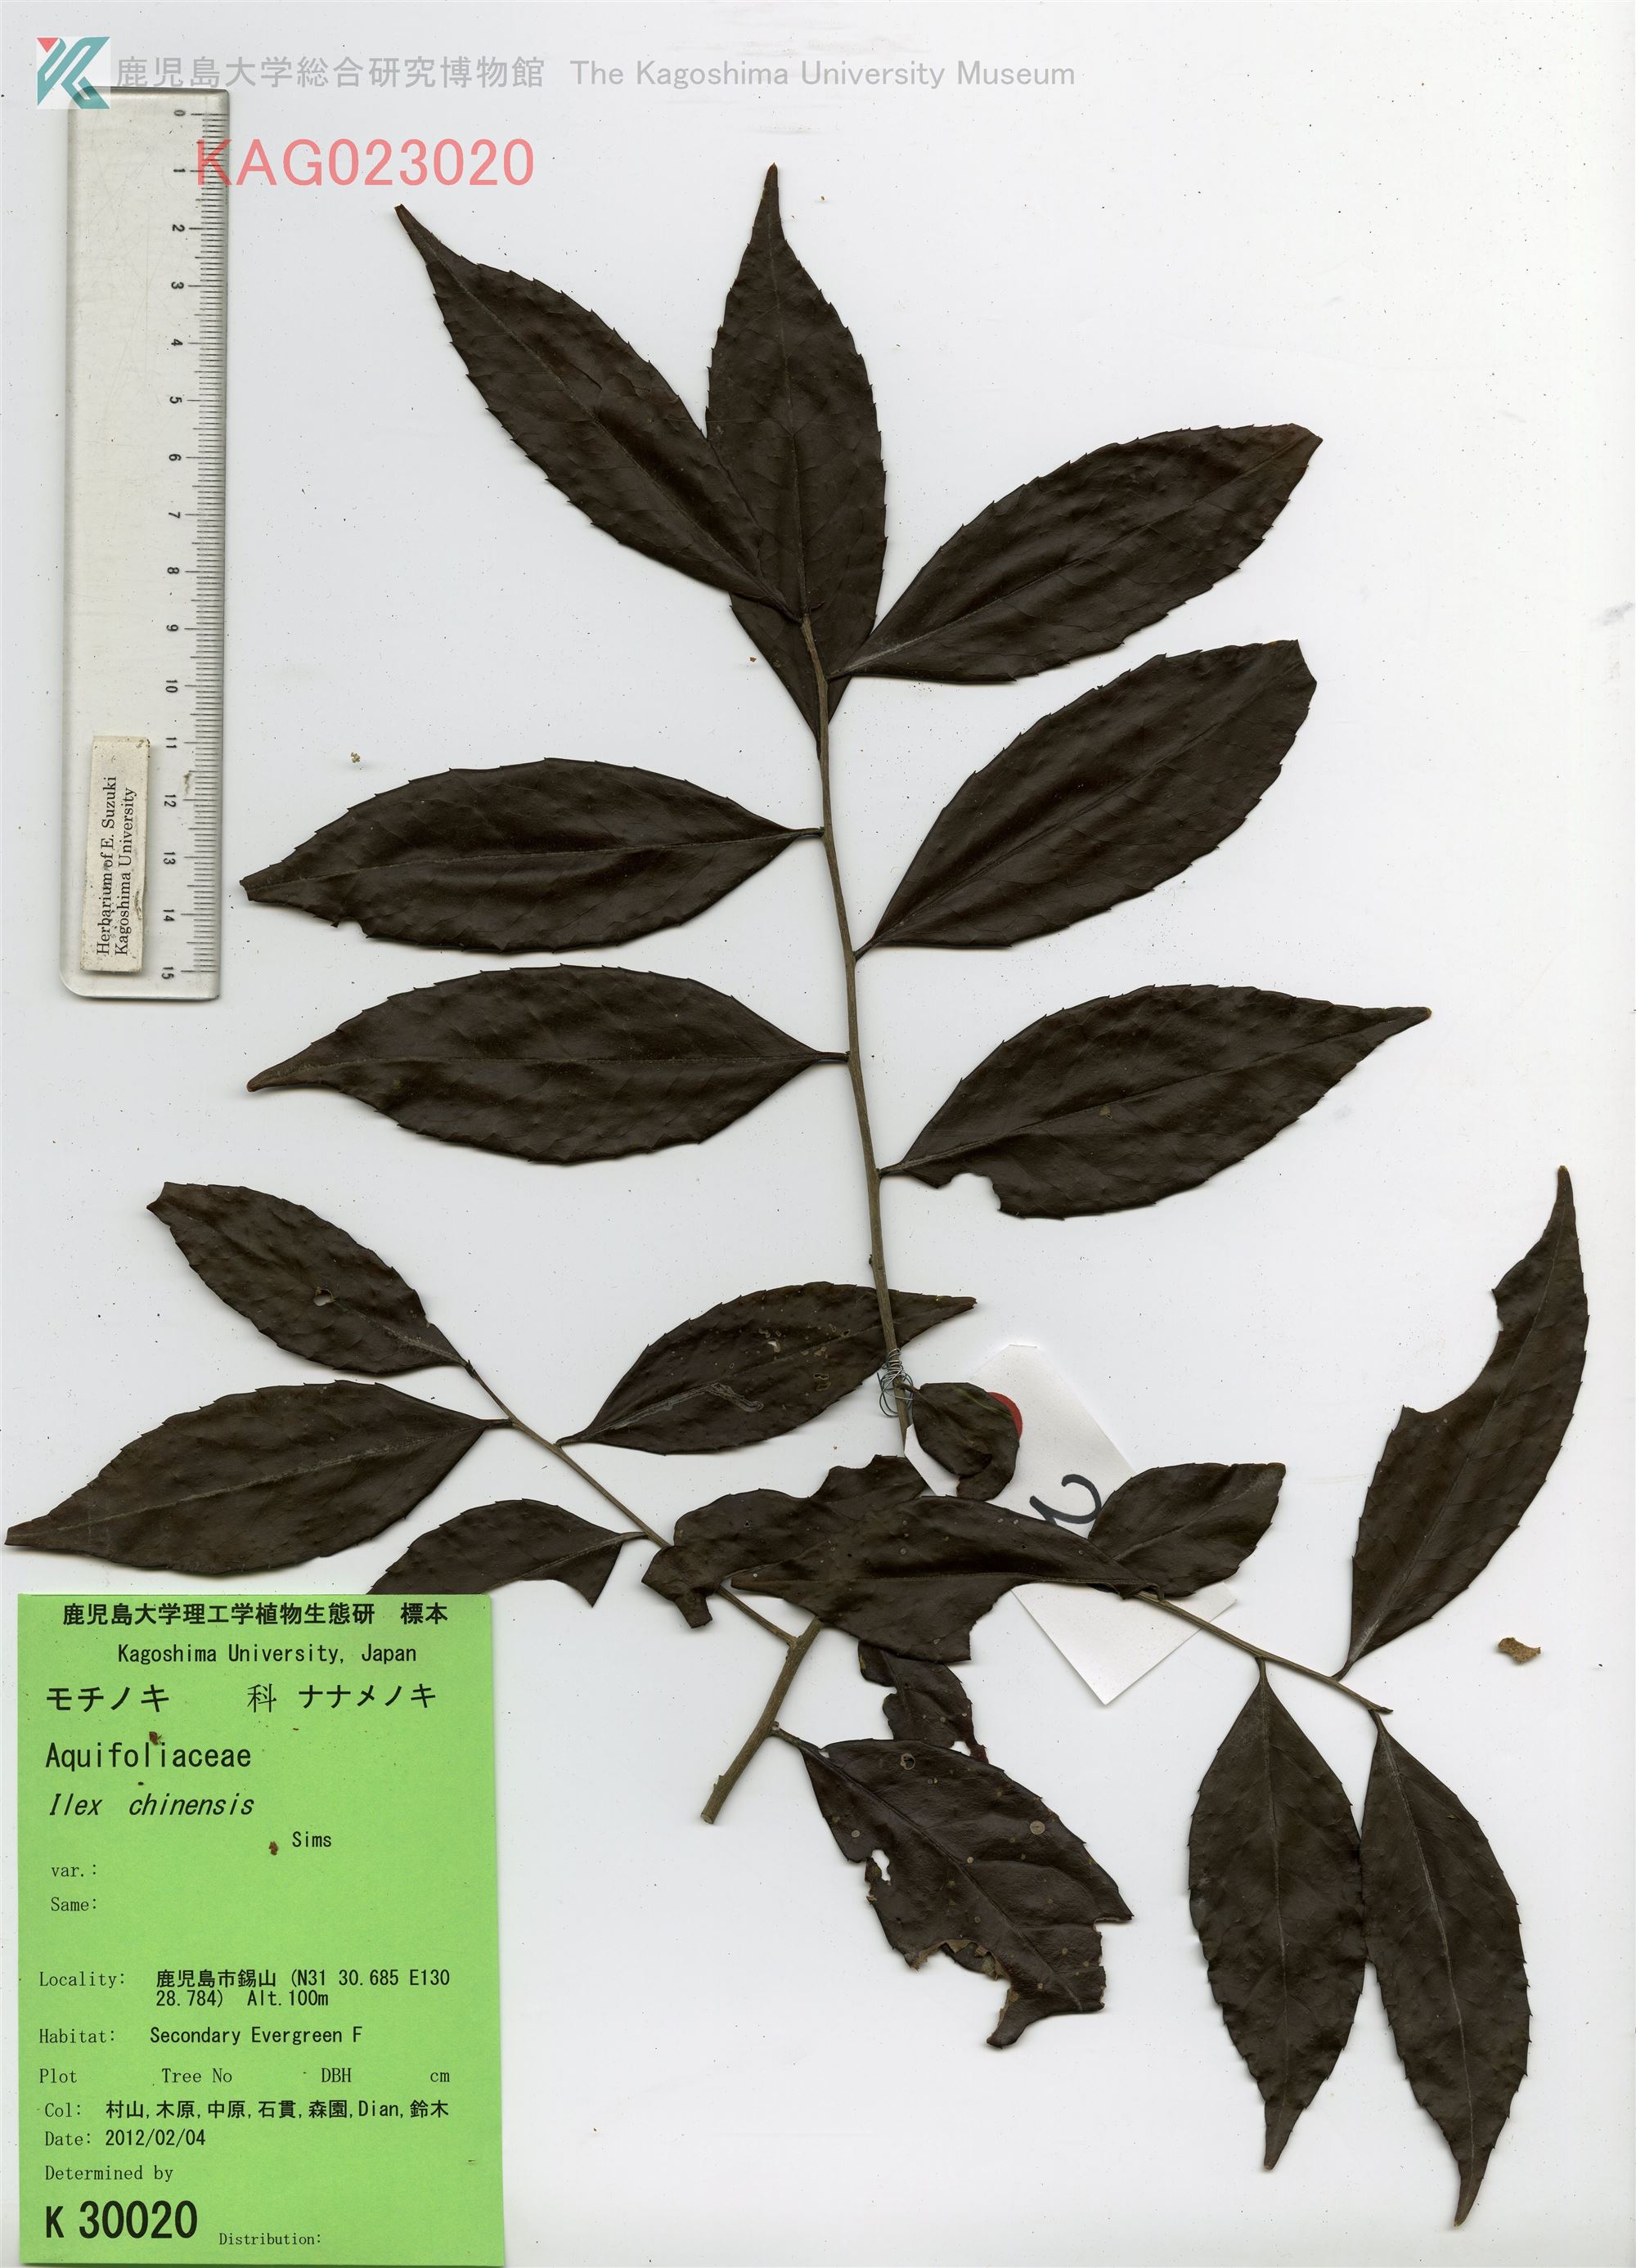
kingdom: Plantae
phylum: Tracheophyta
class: Magnoliopsida
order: Aquifoliales
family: Aquifoliaceae
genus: Ilex
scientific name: Ilex chinensis
